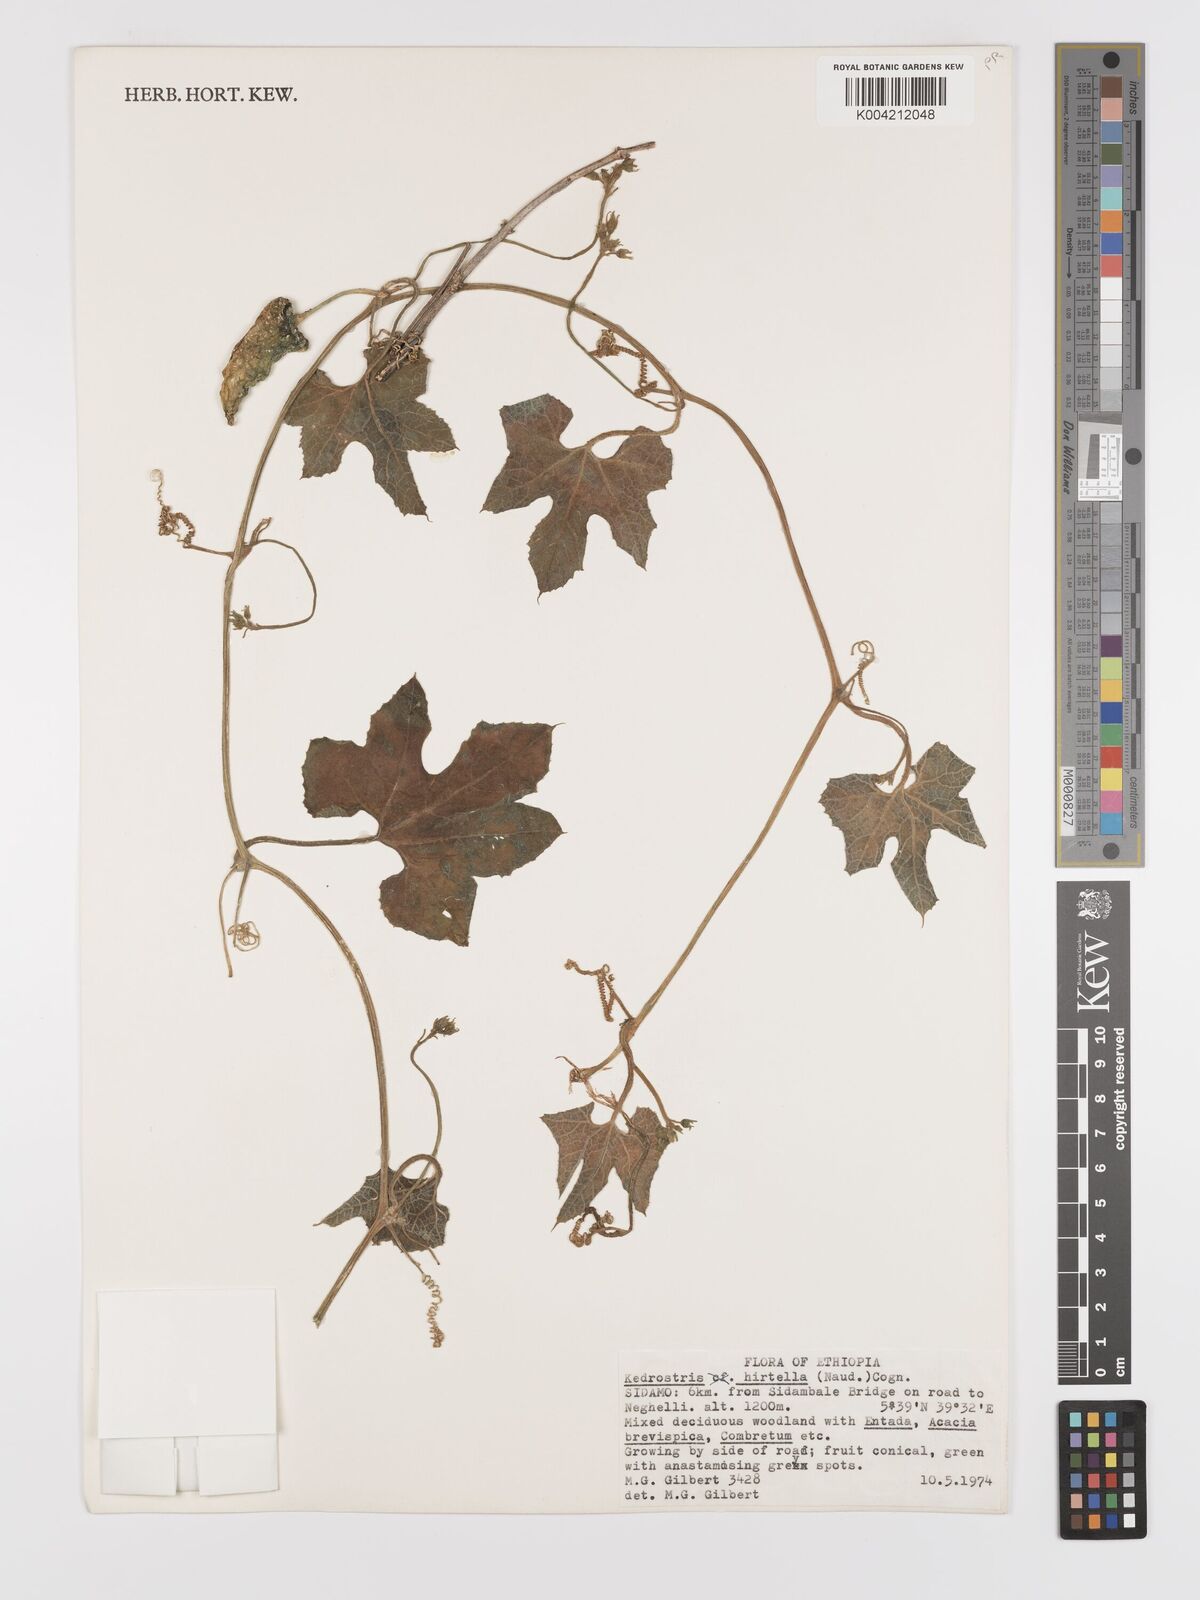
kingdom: Plantae
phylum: Tracheophyta
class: Magnoliopsida
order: Cucurbitales
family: Cucurbitaceae
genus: Kedrostis
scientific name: Kedrostis leloja
